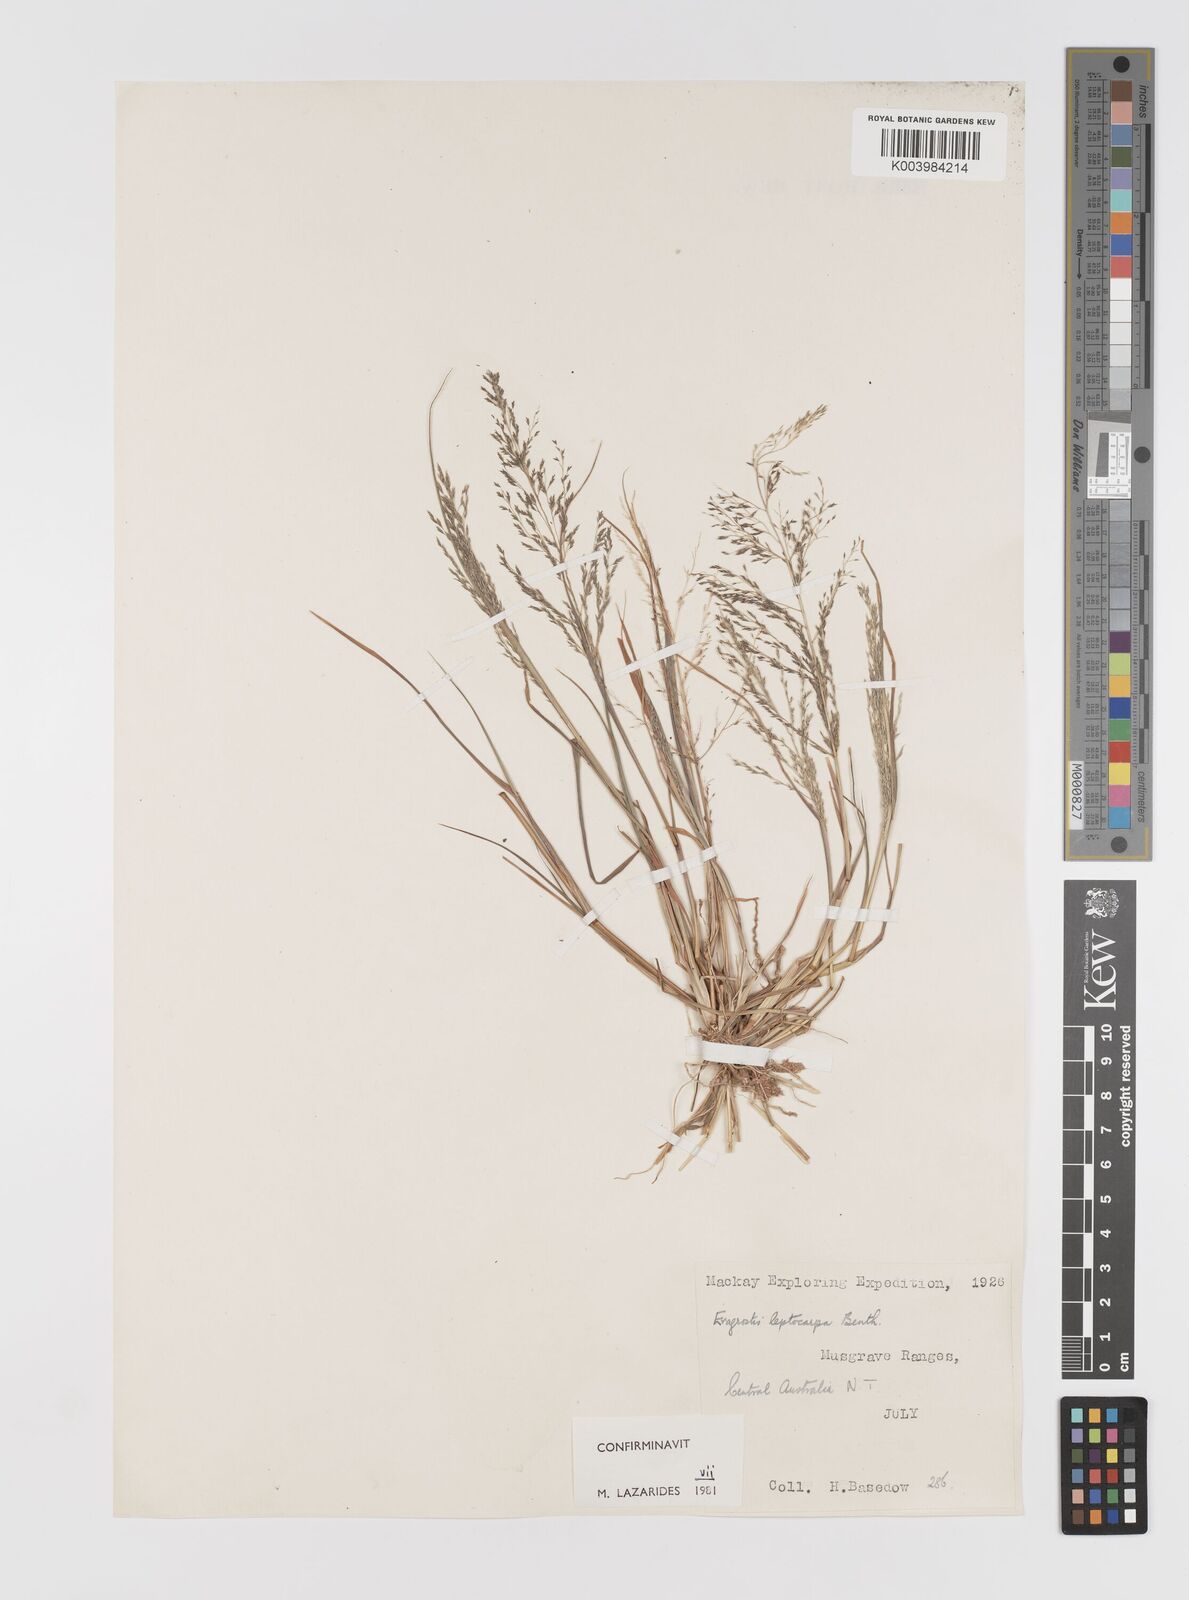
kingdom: Plantae
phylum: Tracheophyta
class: Liliopsida
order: Poales
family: Poaceae
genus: Eragrostis
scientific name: Eragrostis leptocarpa
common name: Drooping love grass
